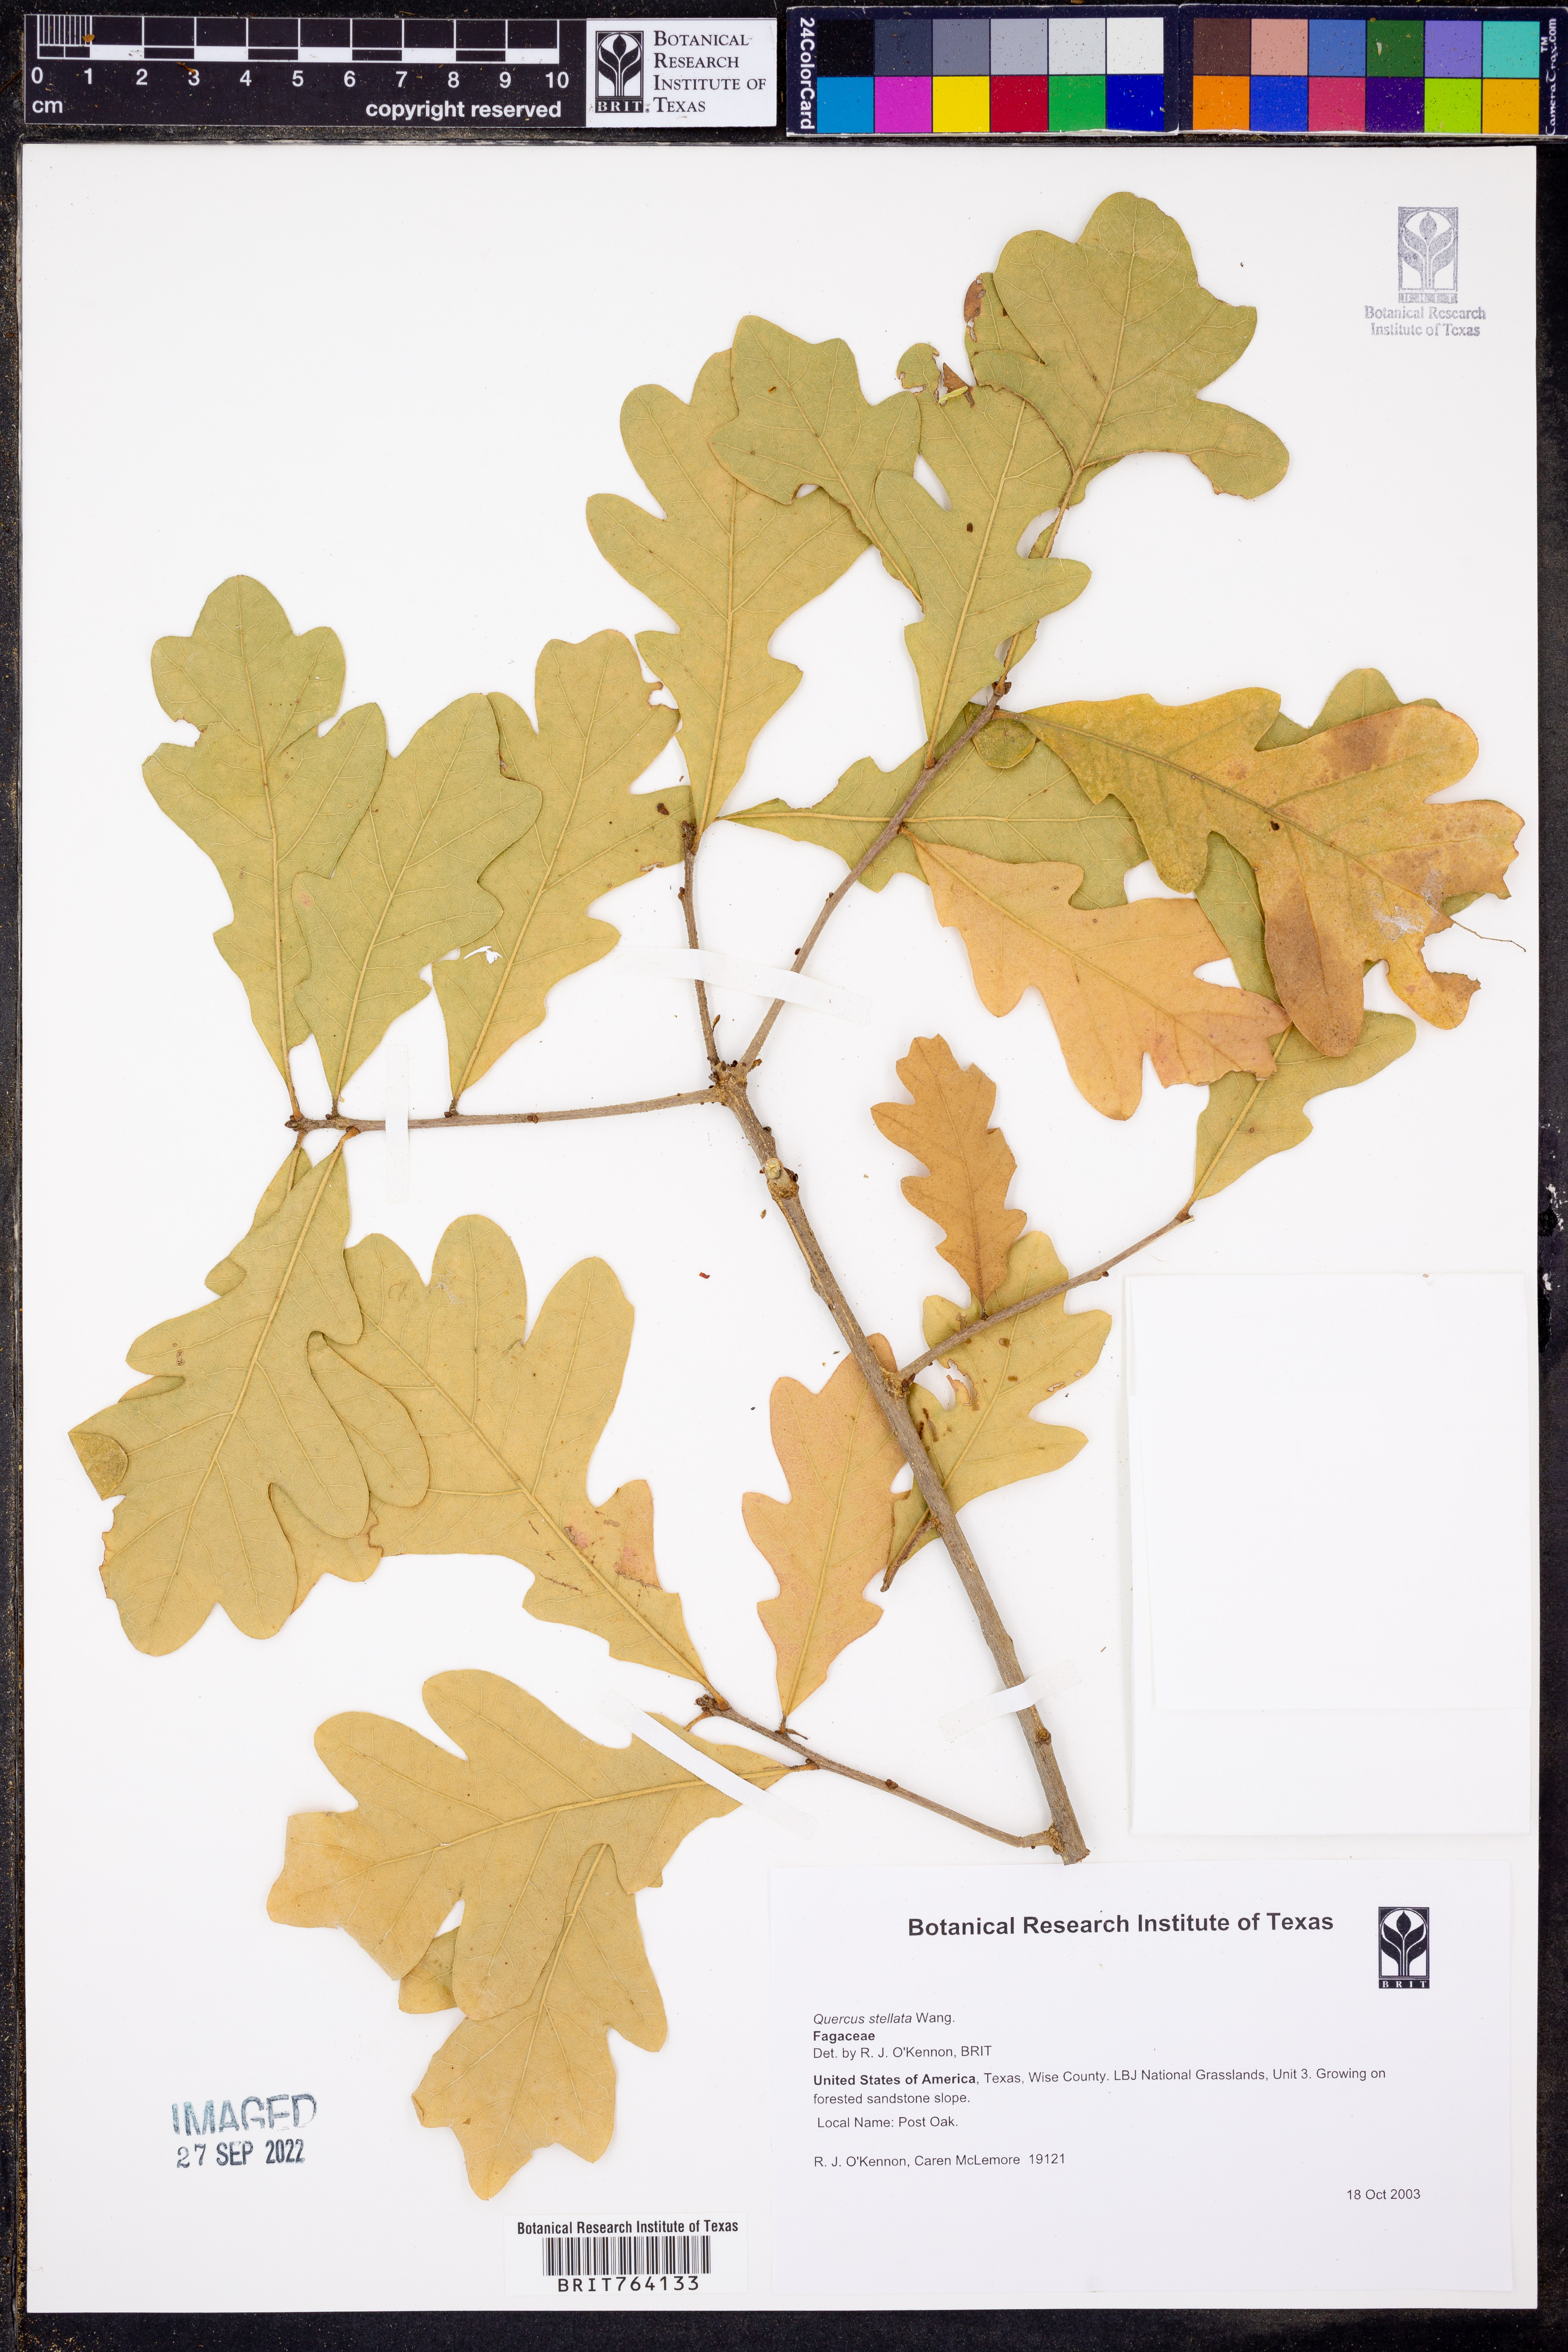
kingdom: Plantae
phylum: Tracheophyta
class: Magnoliopsida
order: Fagales
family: Fagaceae
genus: Quercus
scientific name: Quercus stellata
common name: Post oak
